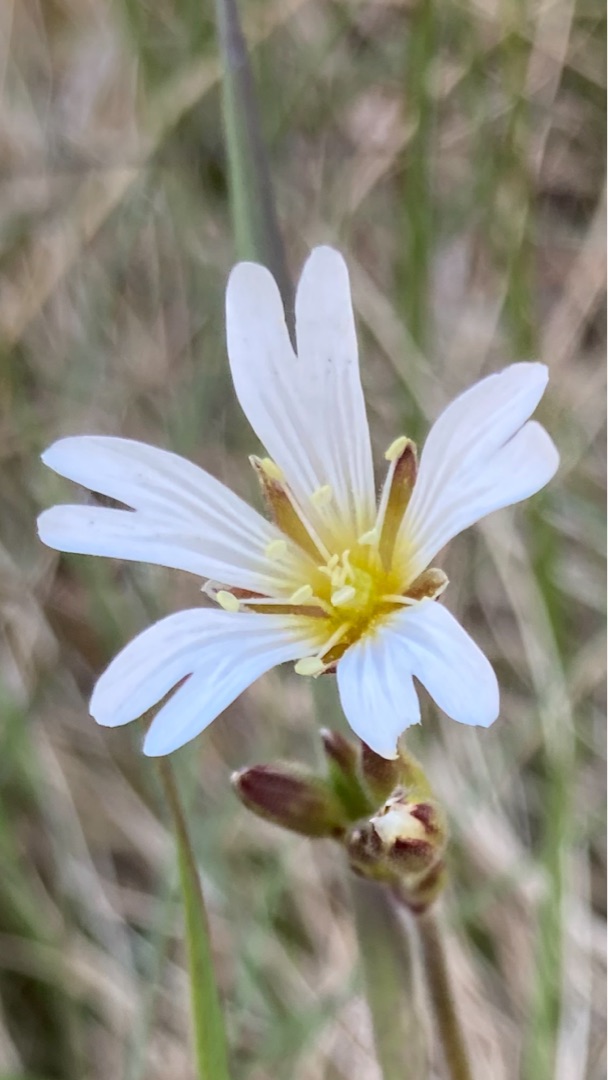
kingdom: Plantae
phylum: Tracheophyta
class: Magnoliopsida
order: Caryophyllales
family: Caryophyllaceae
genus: Cerastium
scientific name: Cerastium arvense
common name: Storblomstret hønsetarm
